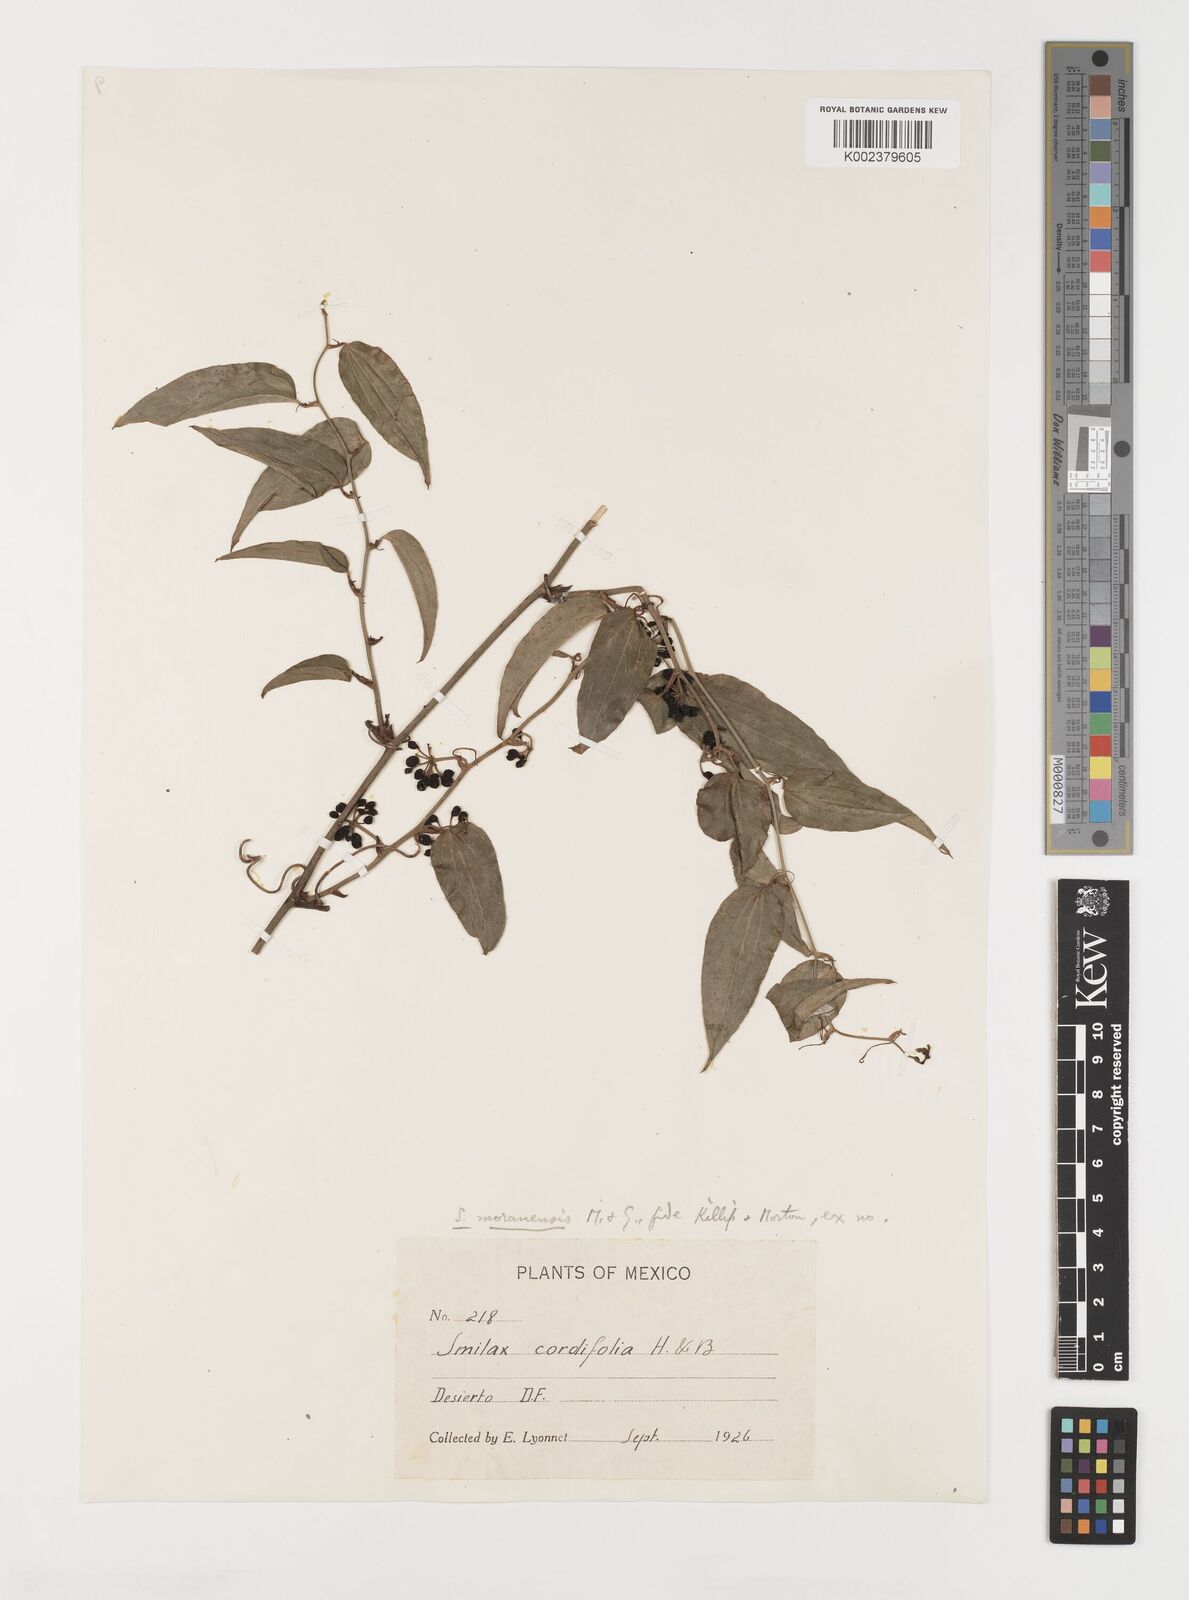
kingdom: Plantae
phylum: Tracheophyta
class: Liliopsida
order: Liliales
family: Smilacaceae
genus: Smilax
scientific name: Smilax moranensis
